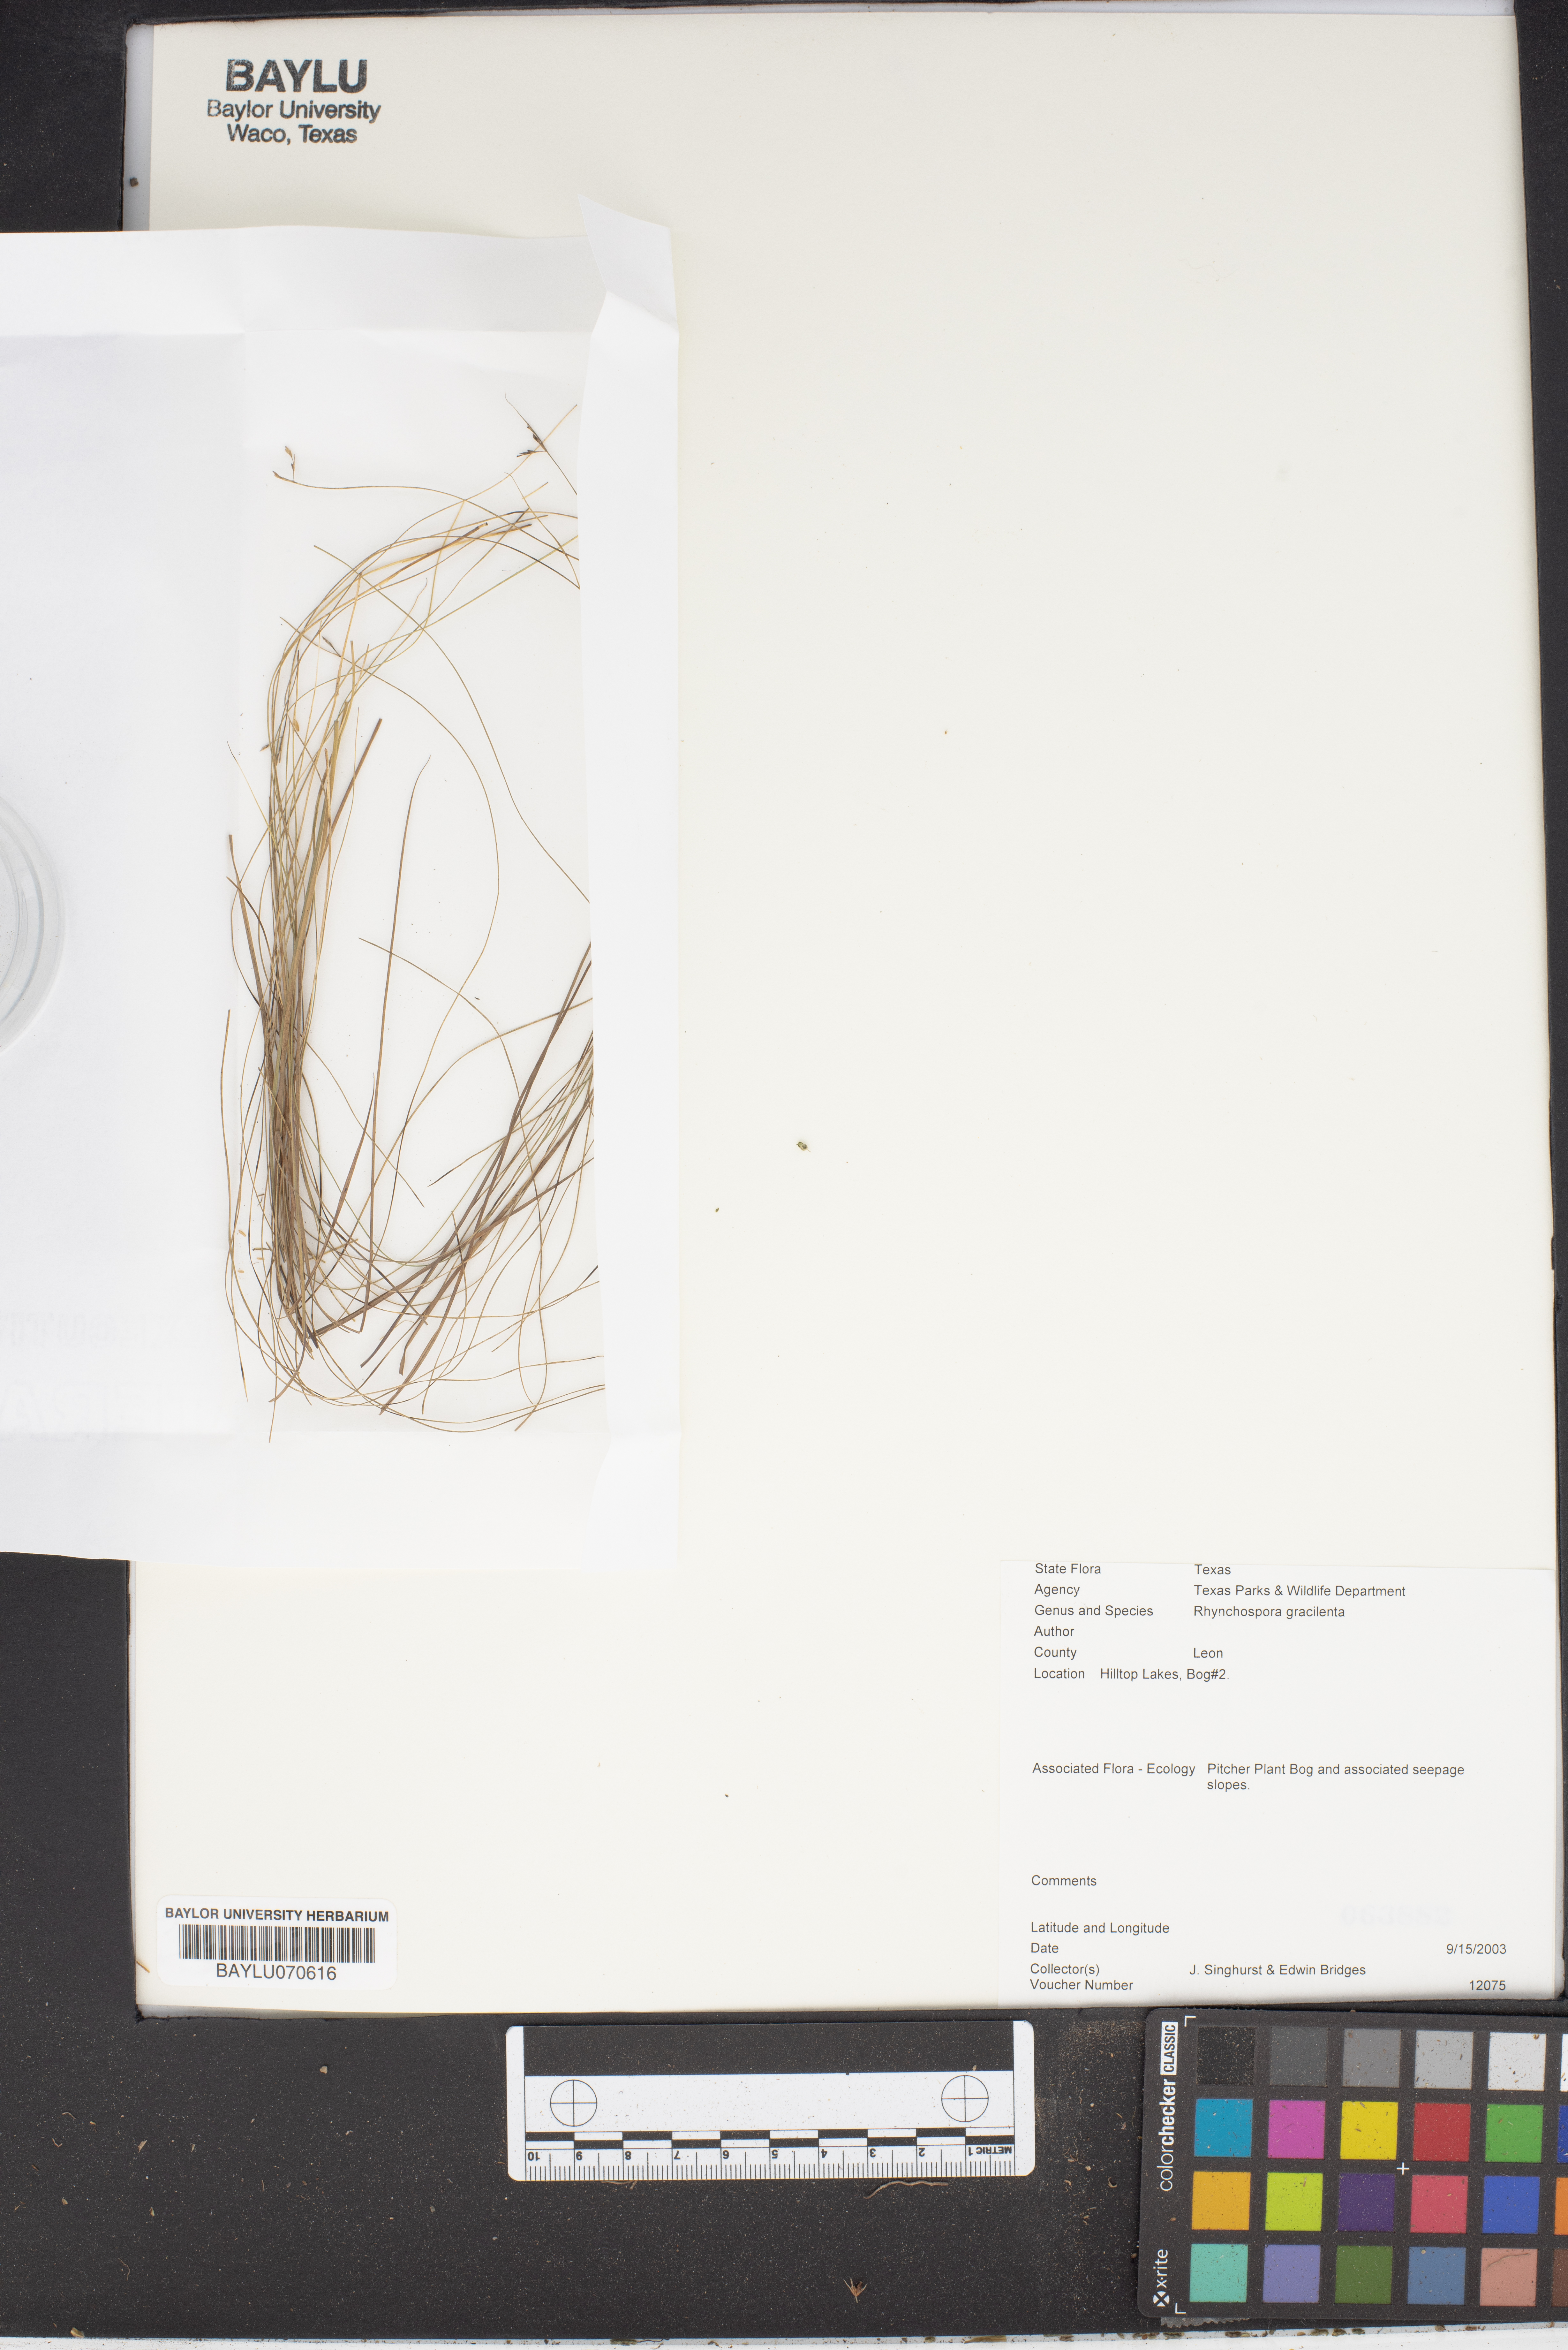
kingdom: Plantae
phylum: Tracheophyta
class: Liliopsida
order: Poales
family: Cyperaceae
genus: Rhynchospora
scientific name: Rhynchospora gracilenta
